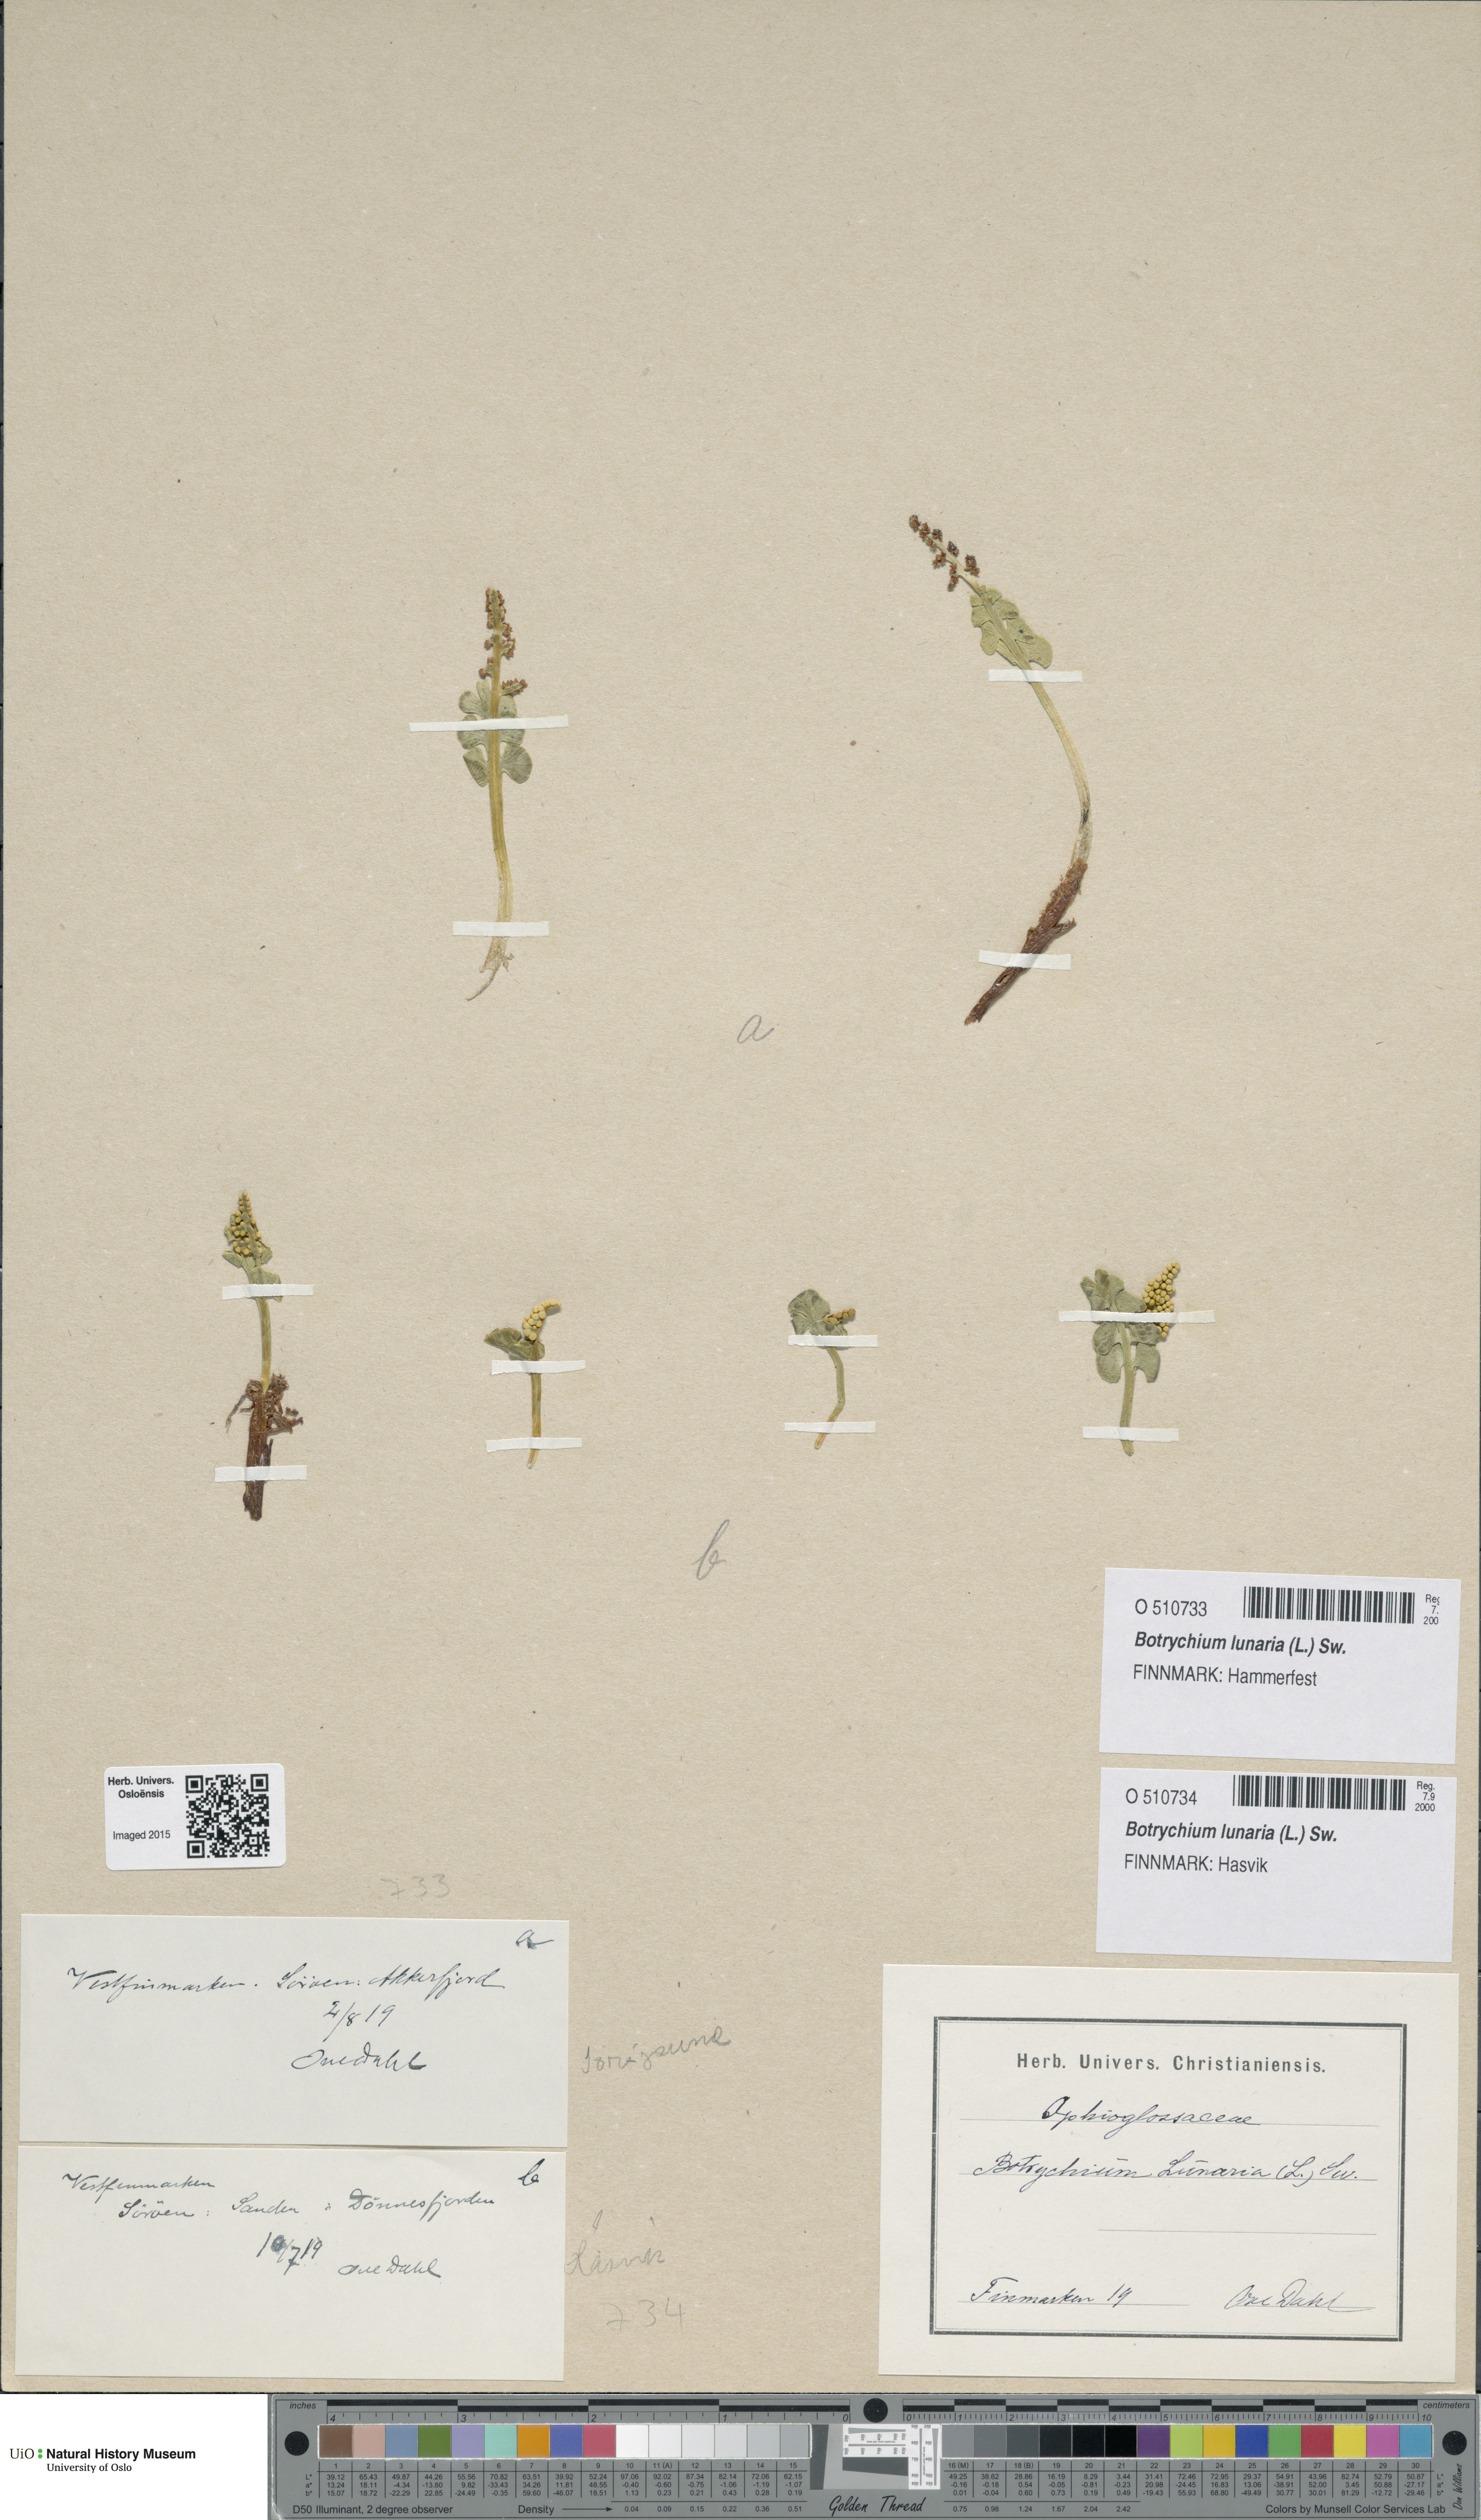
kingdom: Plantae
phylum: Tracheophyta
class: Polypodiopsida
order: Ophioglossales
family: Ophioglossaceae
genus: Botrychium
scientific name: Botrychium lunaria
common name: Moonwort
